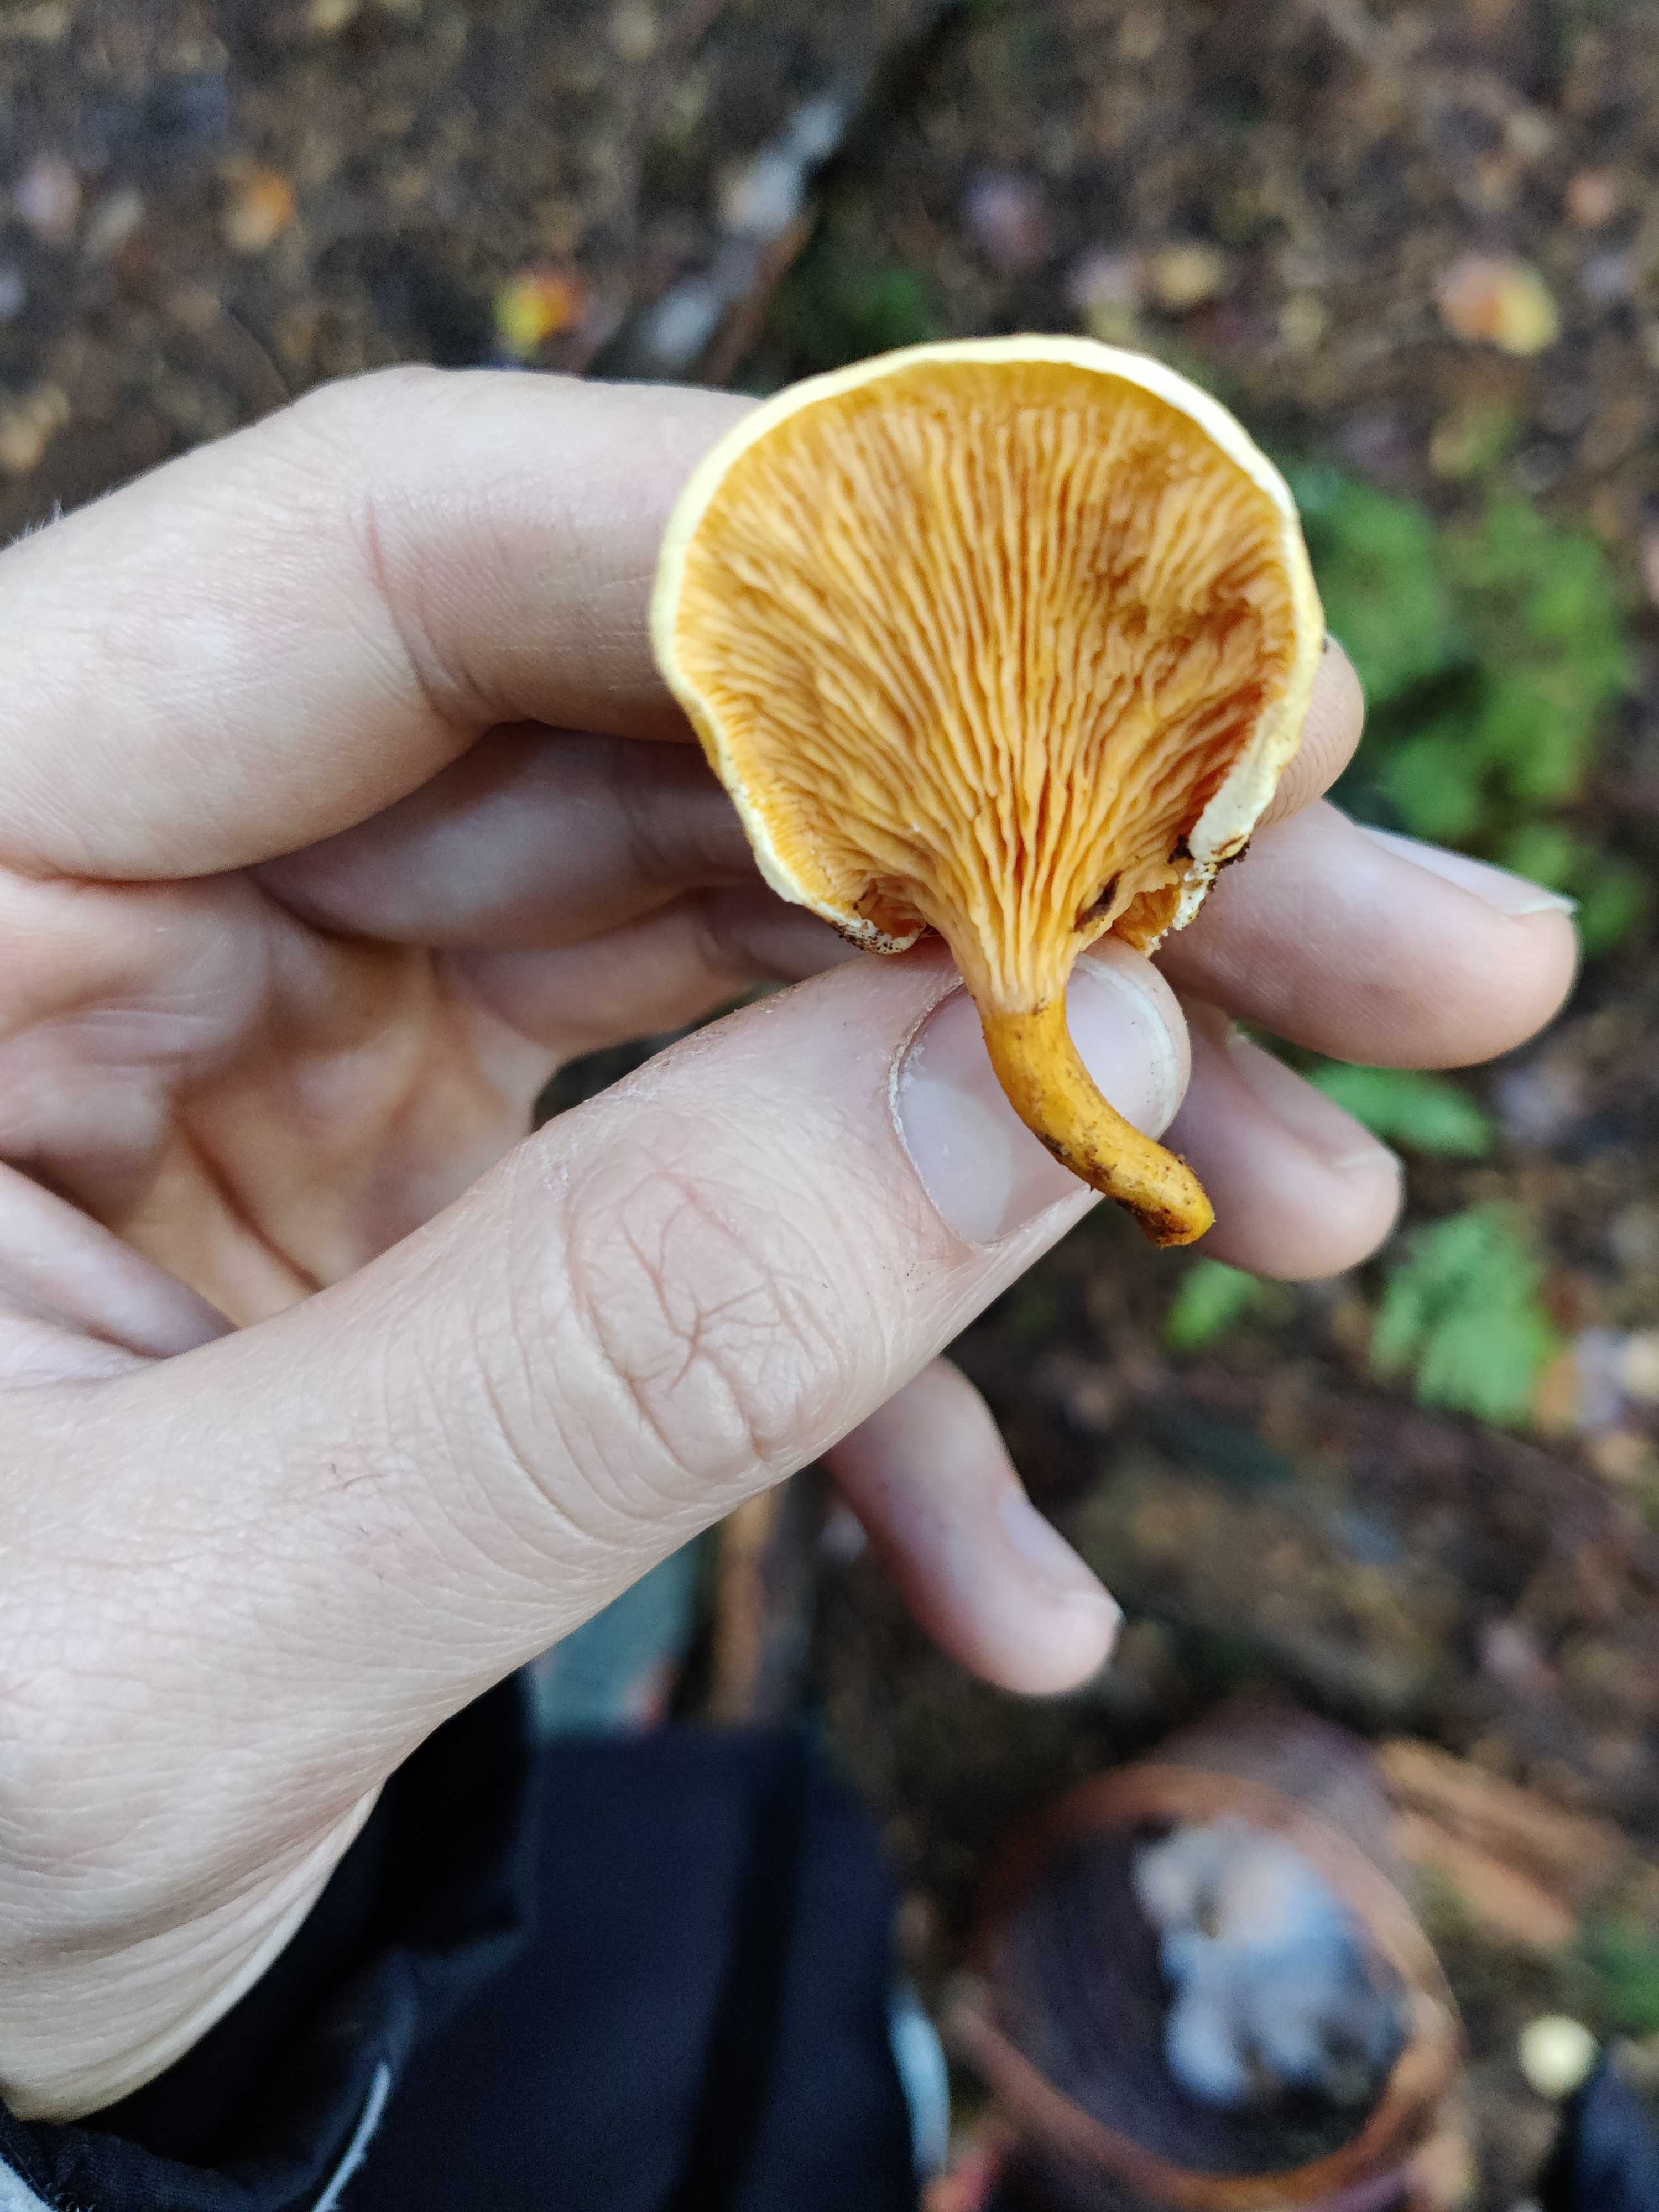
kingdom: Fungi
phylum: Basidiomycota
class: Agaricomycetes
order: Boletales
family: Hygrophoropsidaceae
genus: Hygrophoropsis
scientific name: Hygrophoropsis aurantiaca
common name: almindelig orangekantarel
